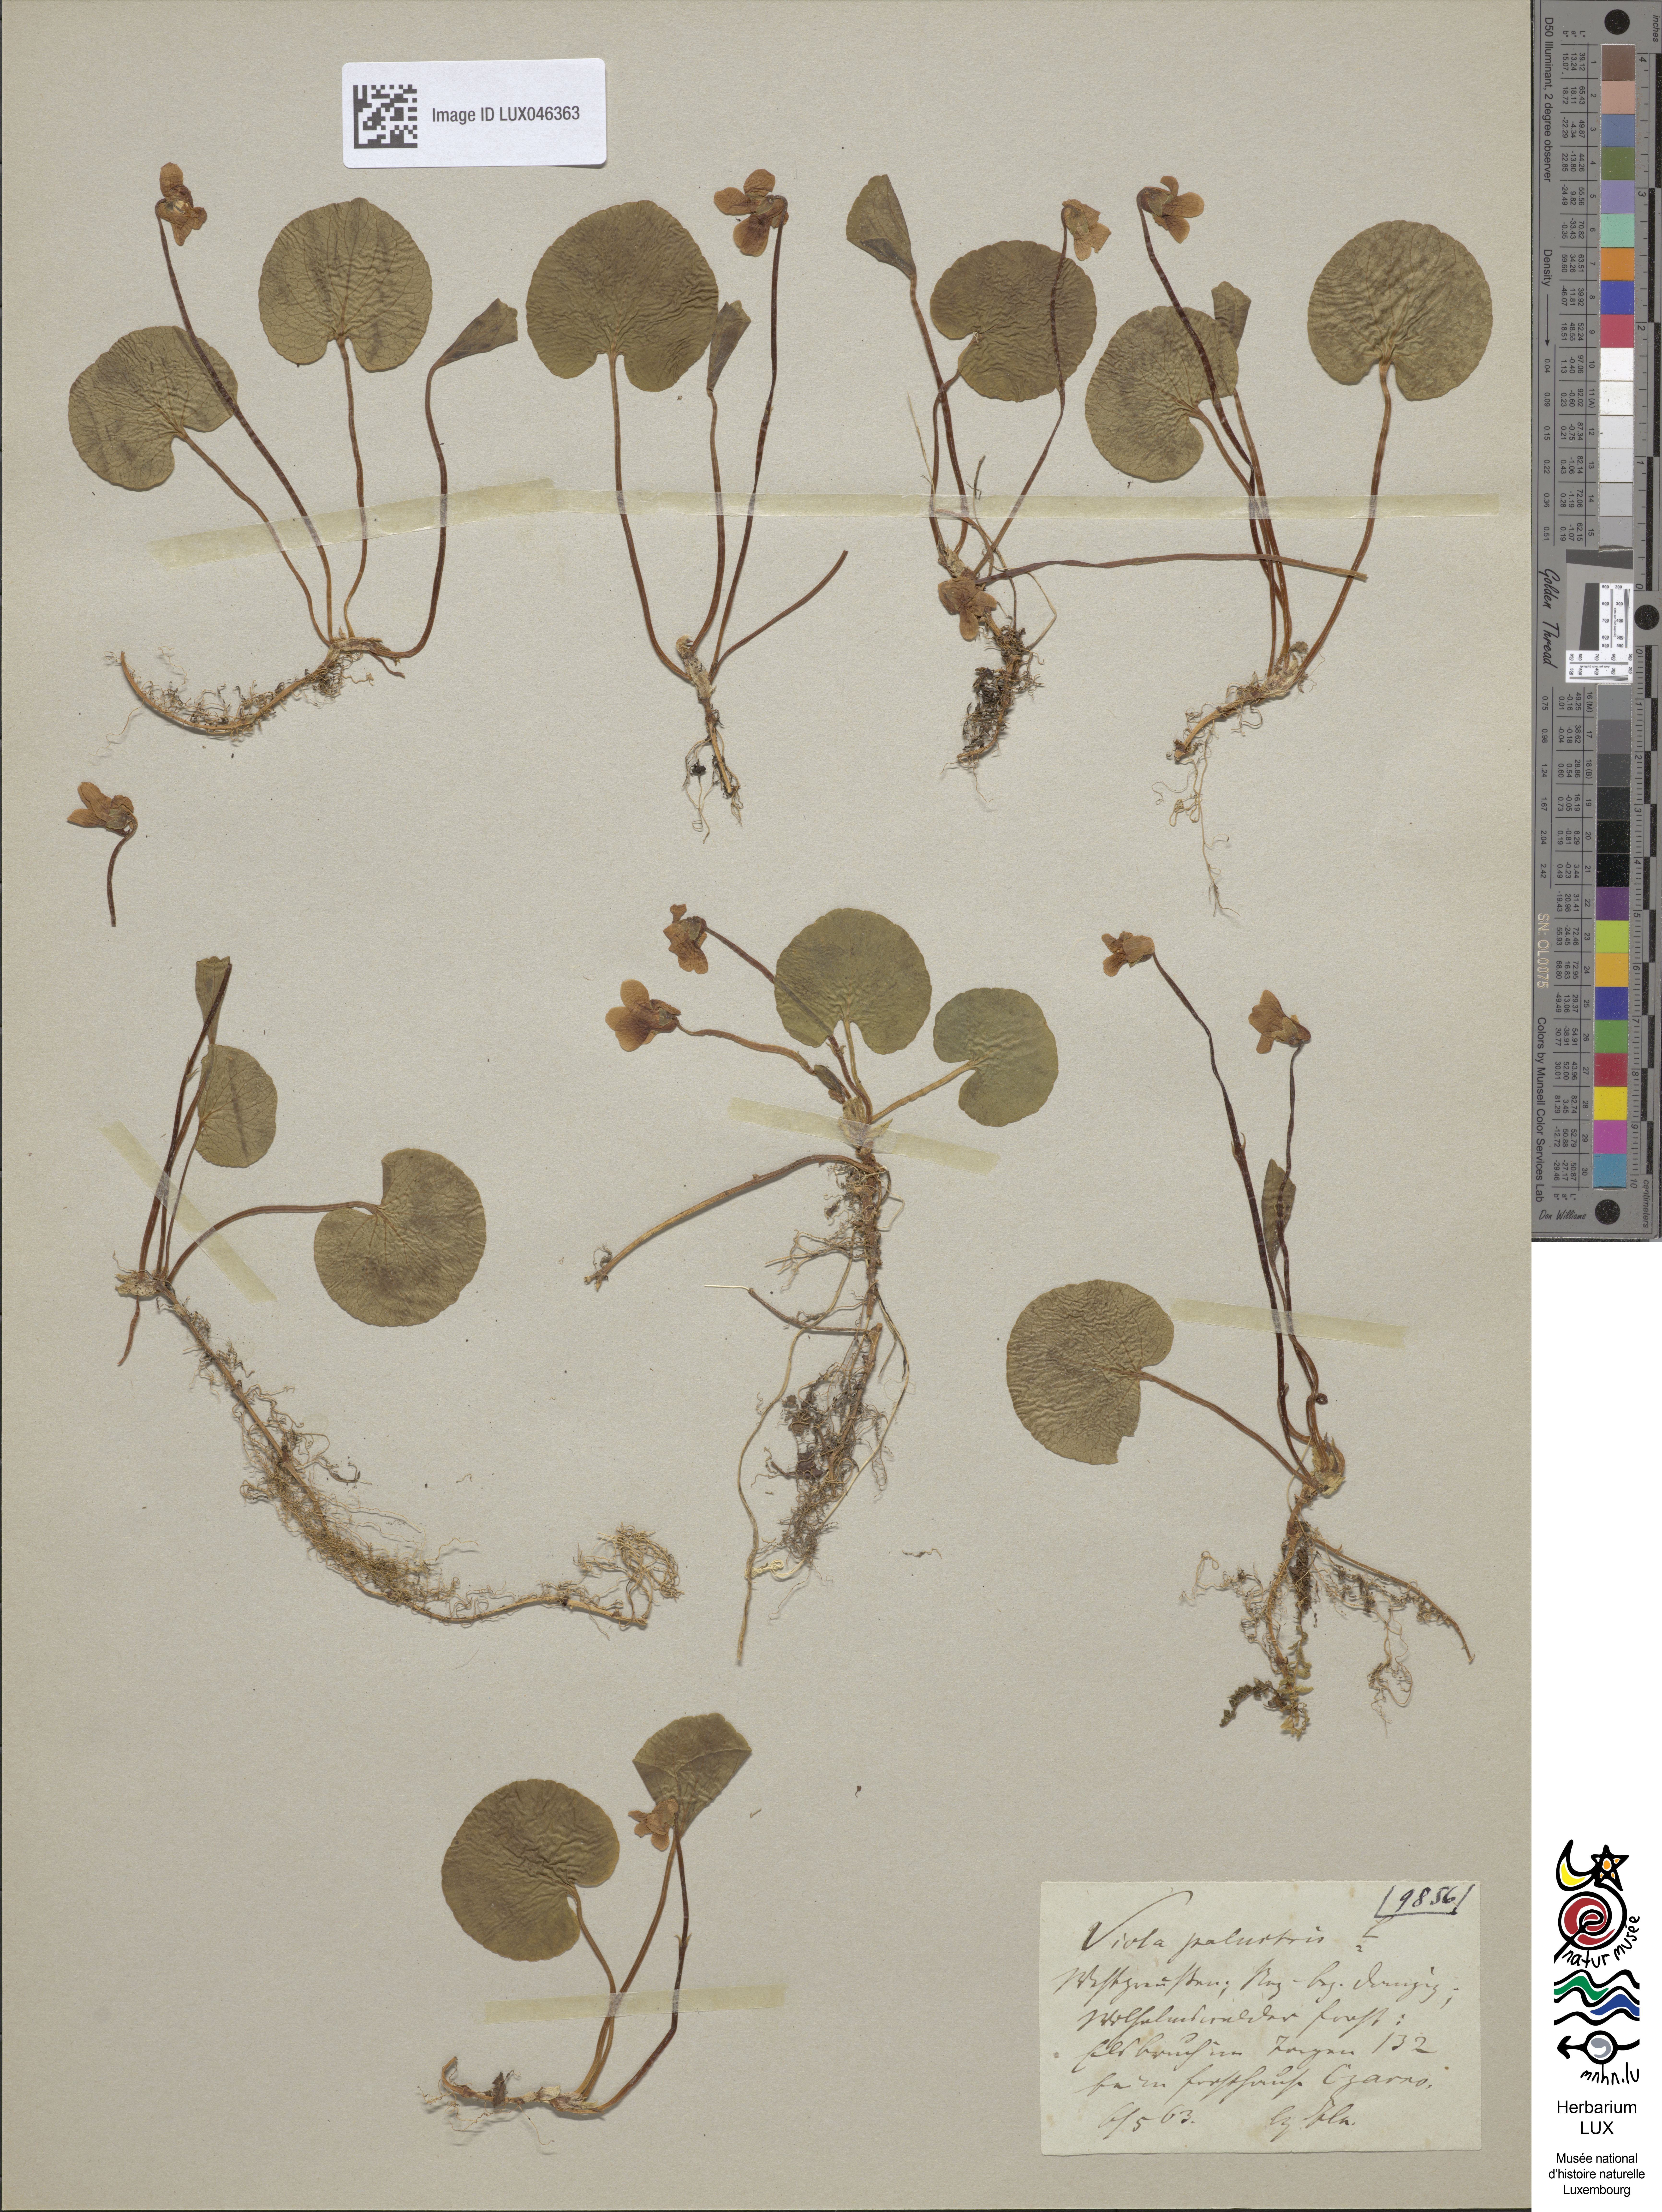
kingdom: Plantae
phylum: Tracheophyta
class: Magnoliopsida
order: Malpighiales
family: Violaceae
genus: Viola
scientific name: Viola palustris
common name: Marsh violet
